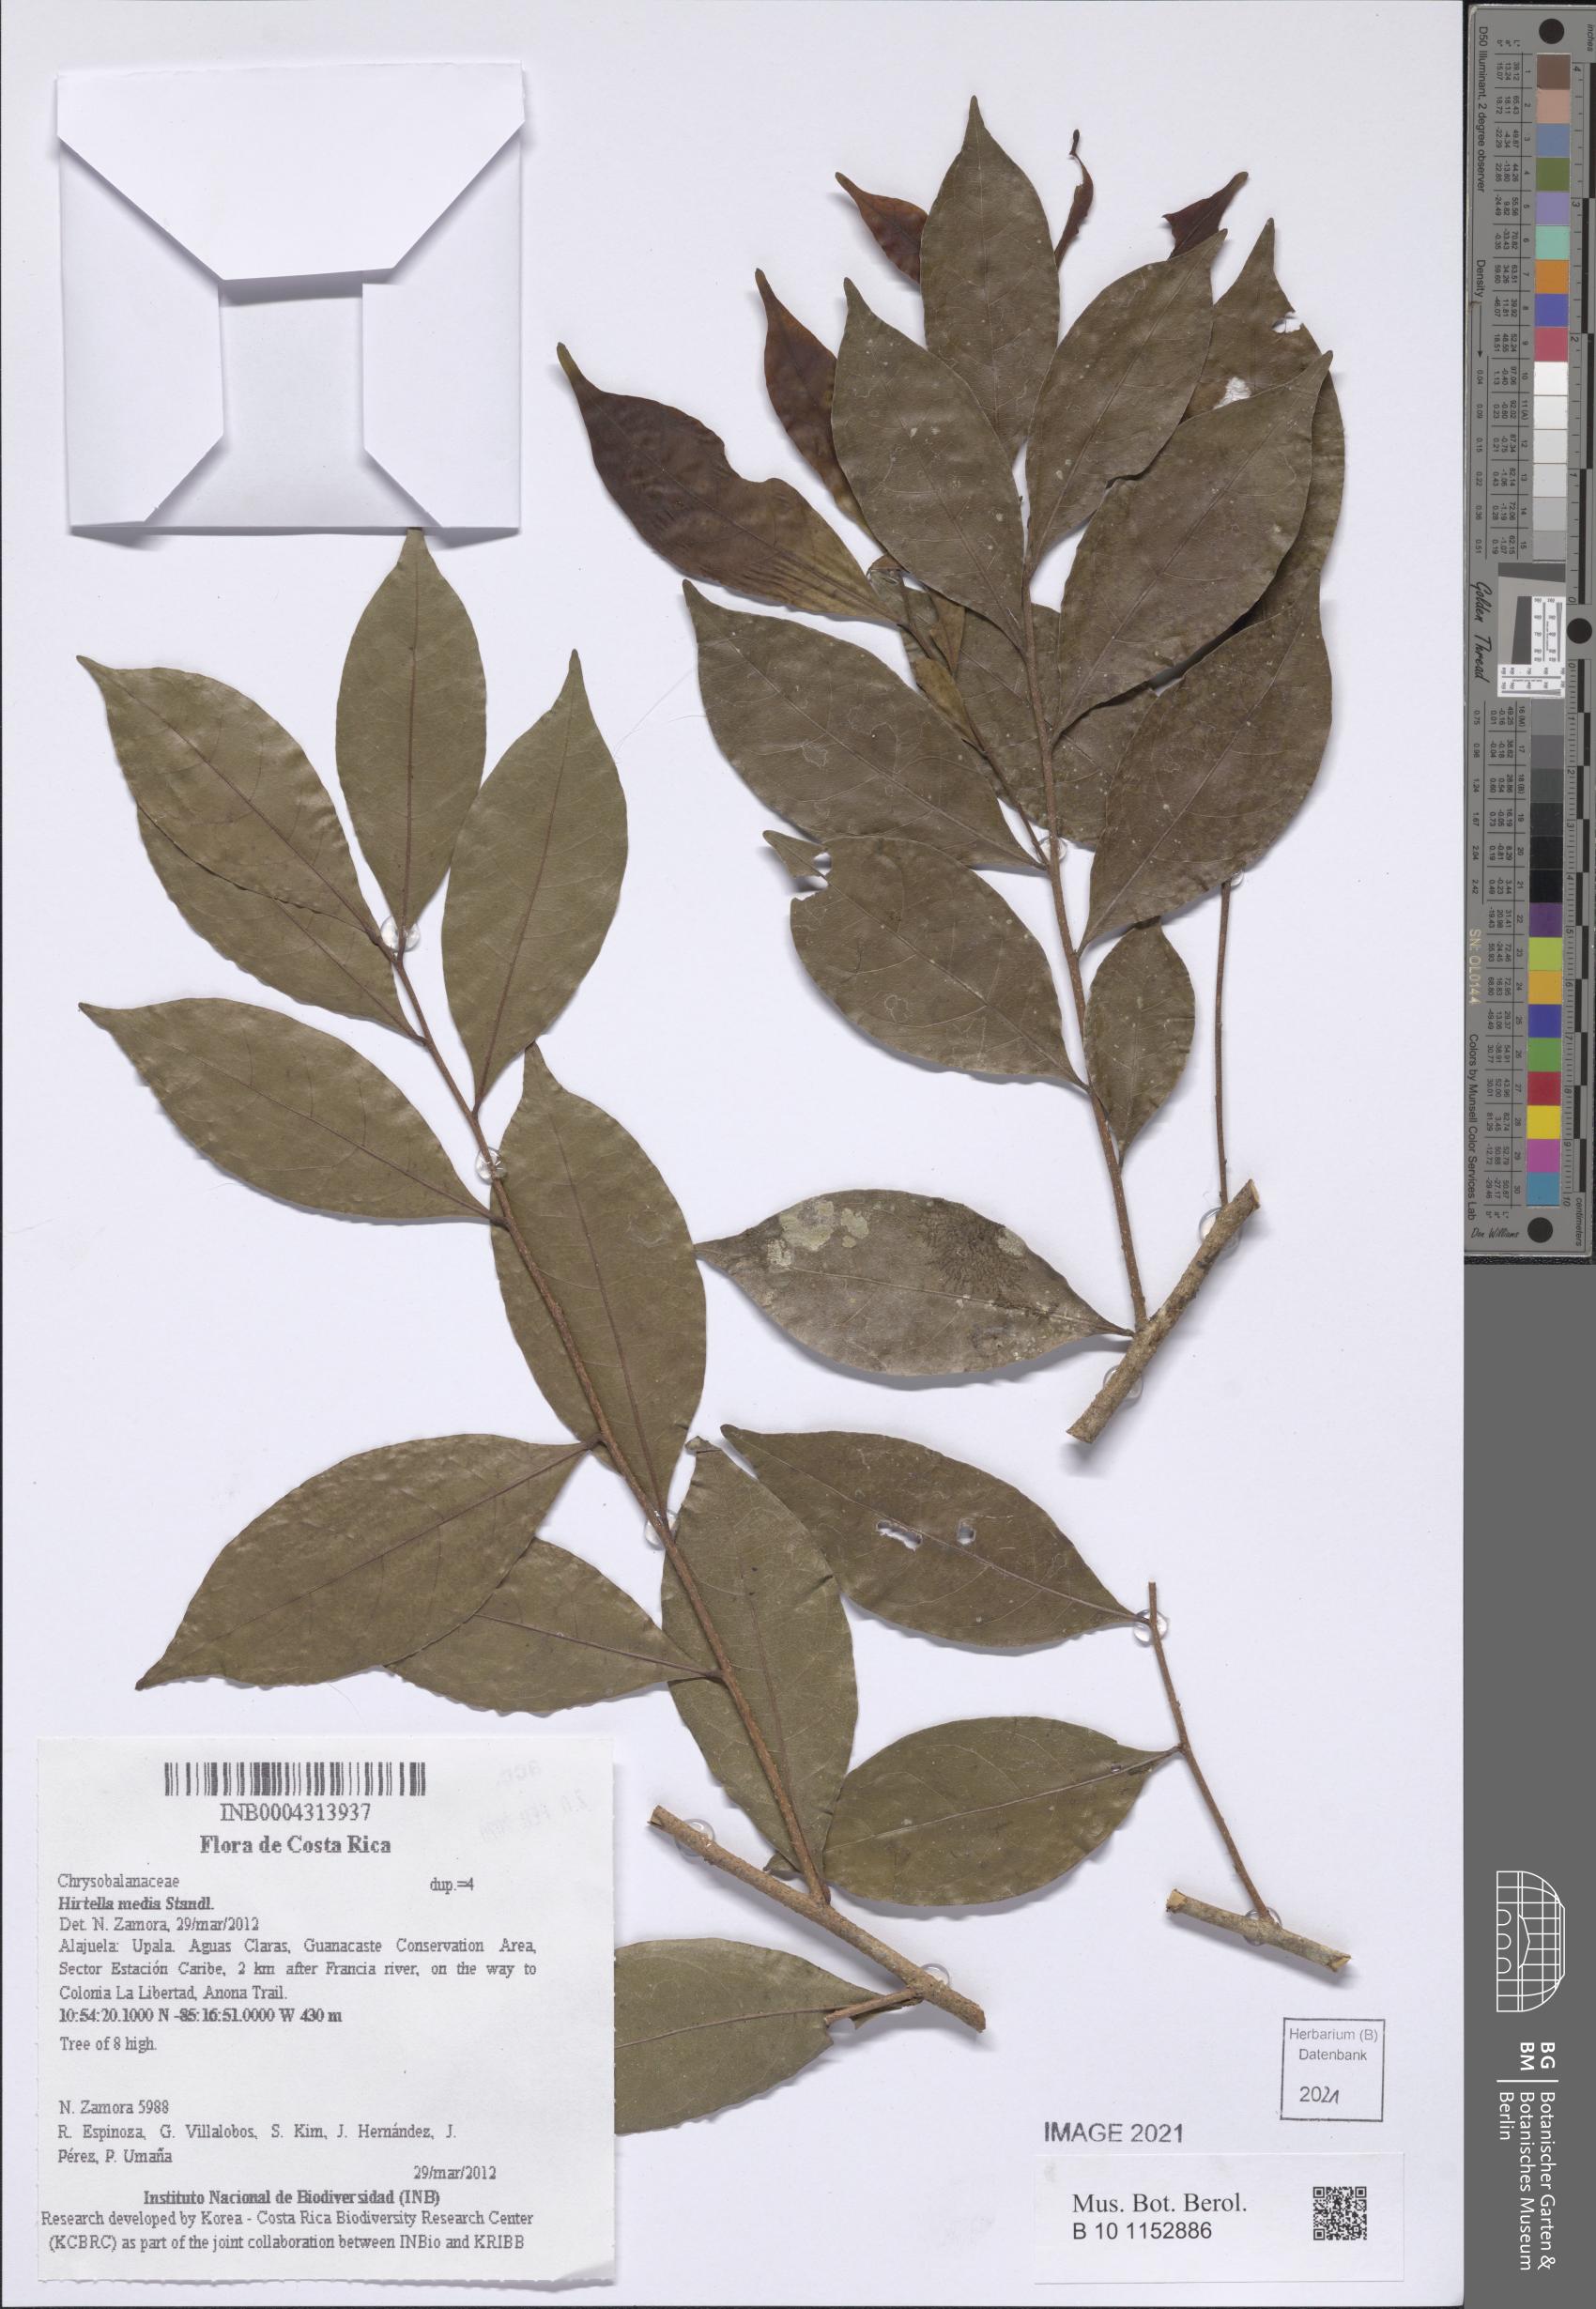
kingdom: Plantae
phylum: Tracheophyta
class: Magnoliopsida
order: Malpighiales
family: Chrysobalanaceae
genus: Hirtella
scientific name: Hirtella triandra
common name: Hairy plum
